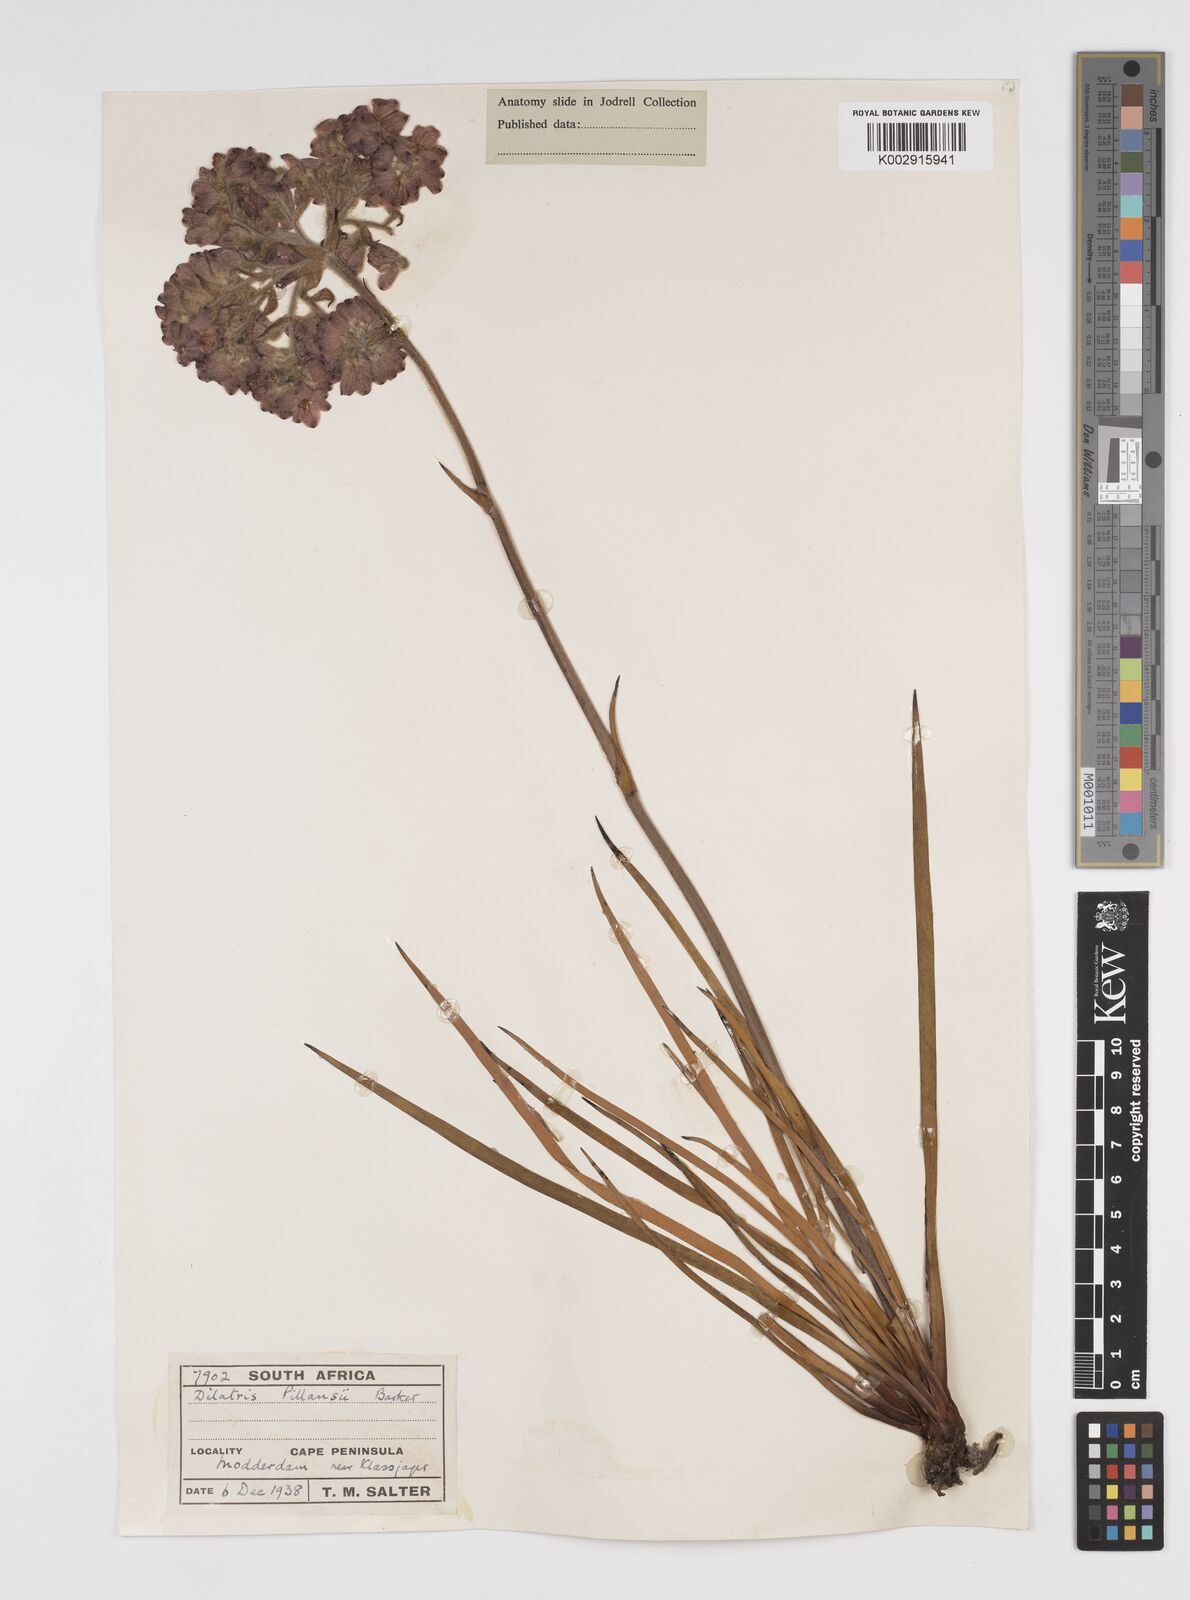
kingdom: Plantae
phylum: Tracheophyta
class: Liliopsida
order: Commelinales
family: Haemodoraceae
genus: Dilatris
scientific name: Dilatris pillansii
